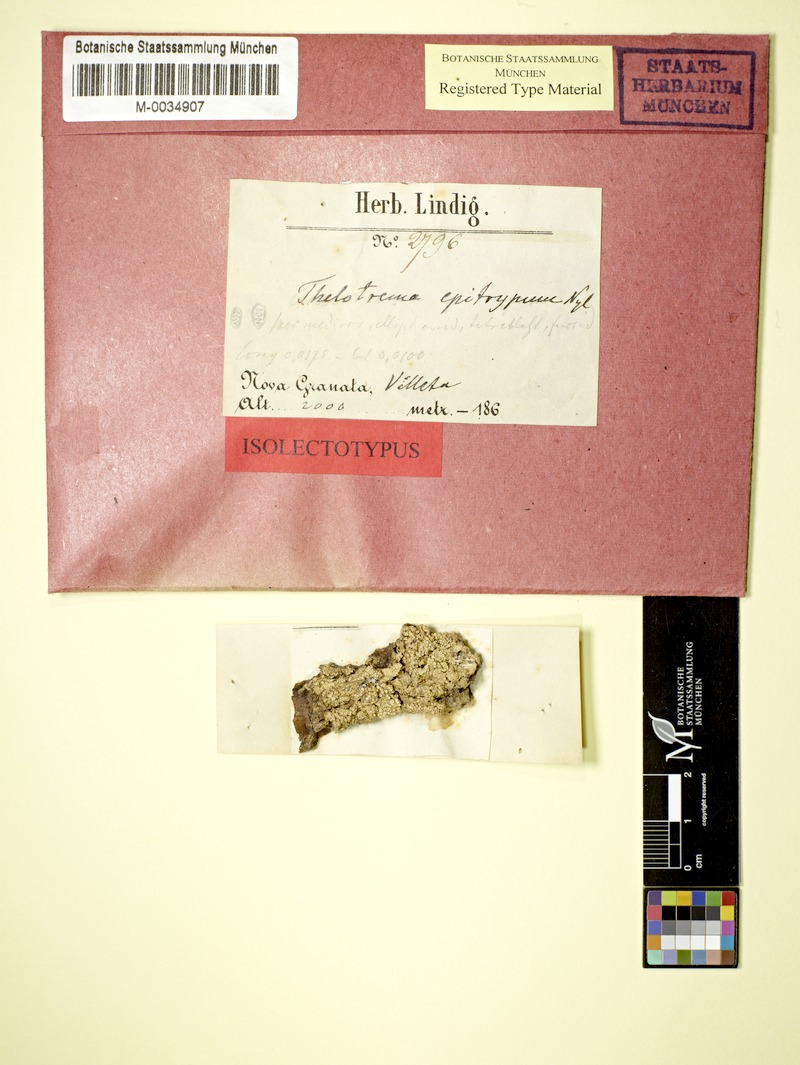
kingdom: Fungi
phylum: Ascomycota
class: Lecanoromycetes
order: Ostropales
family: Graphidaceae
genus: Stegobolus
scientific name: Stegobolus fissus
